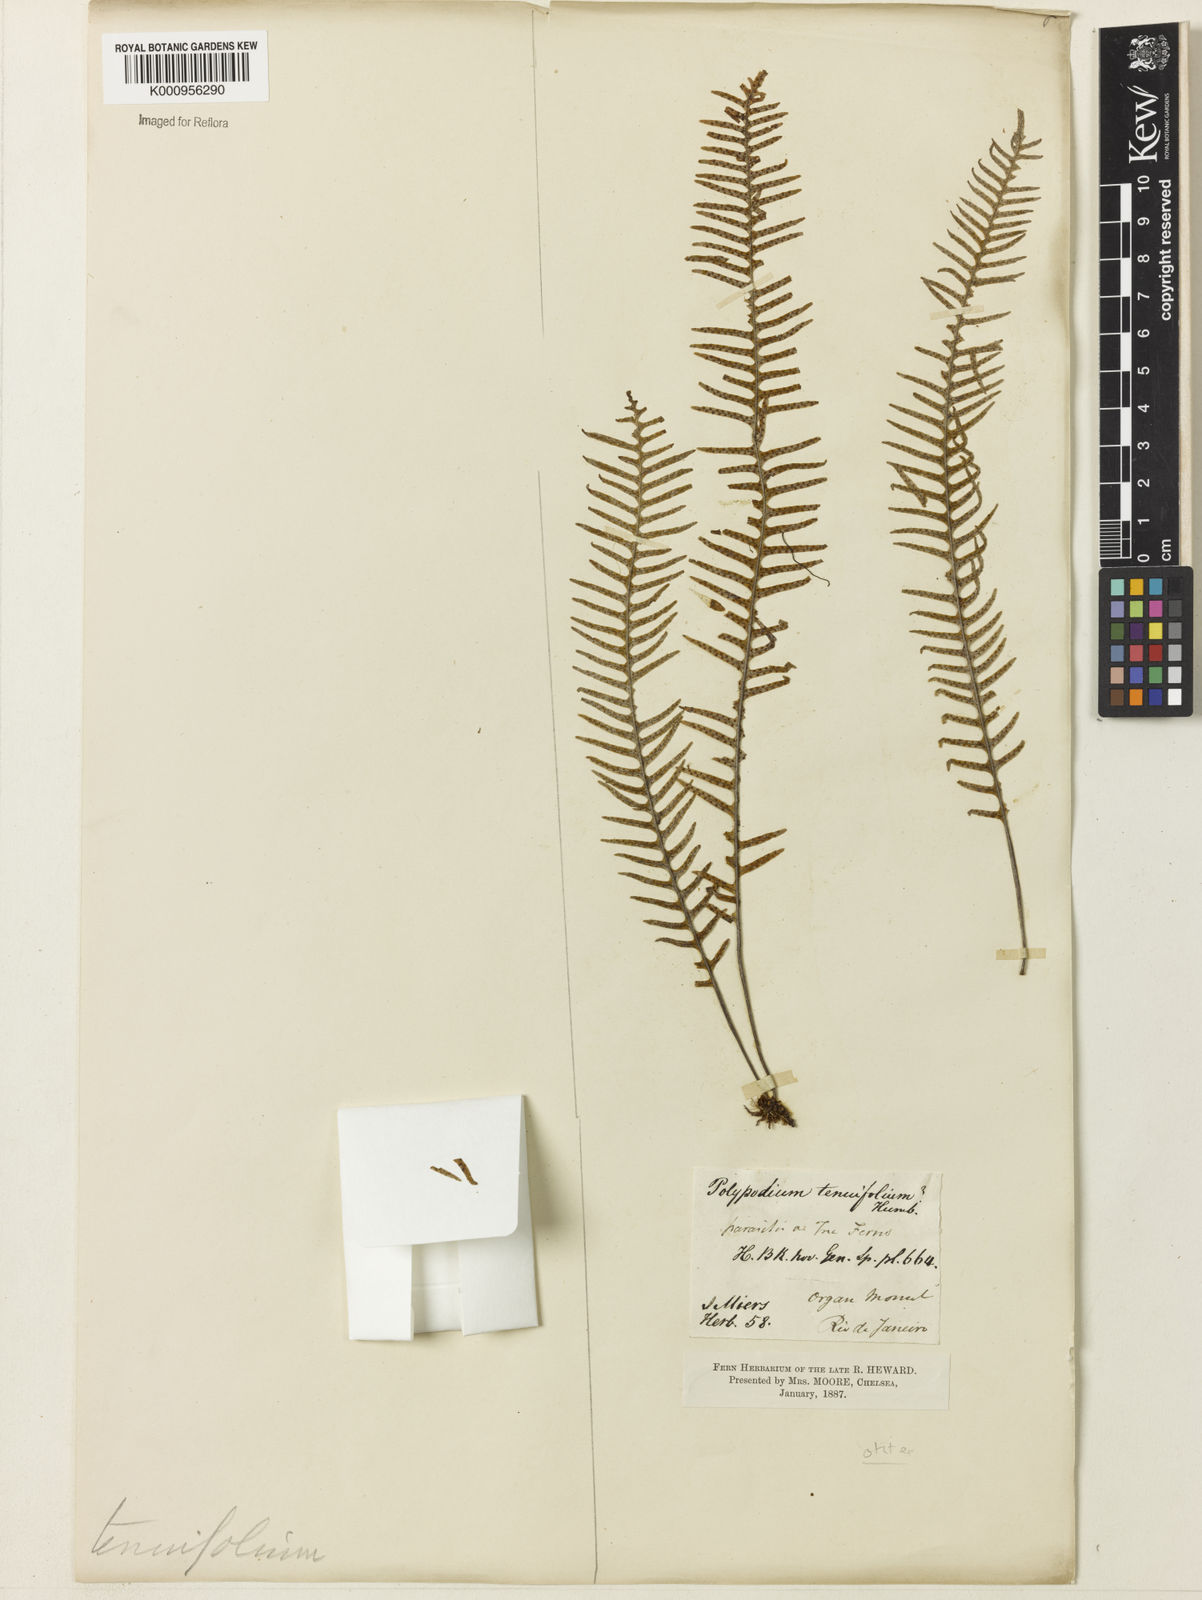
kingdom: Plantae
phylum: Tracheophyta
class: Polypodiopsida
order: Polypodiales
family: Polypodiaceae
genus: Polypodium
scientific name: Polypodium otites
